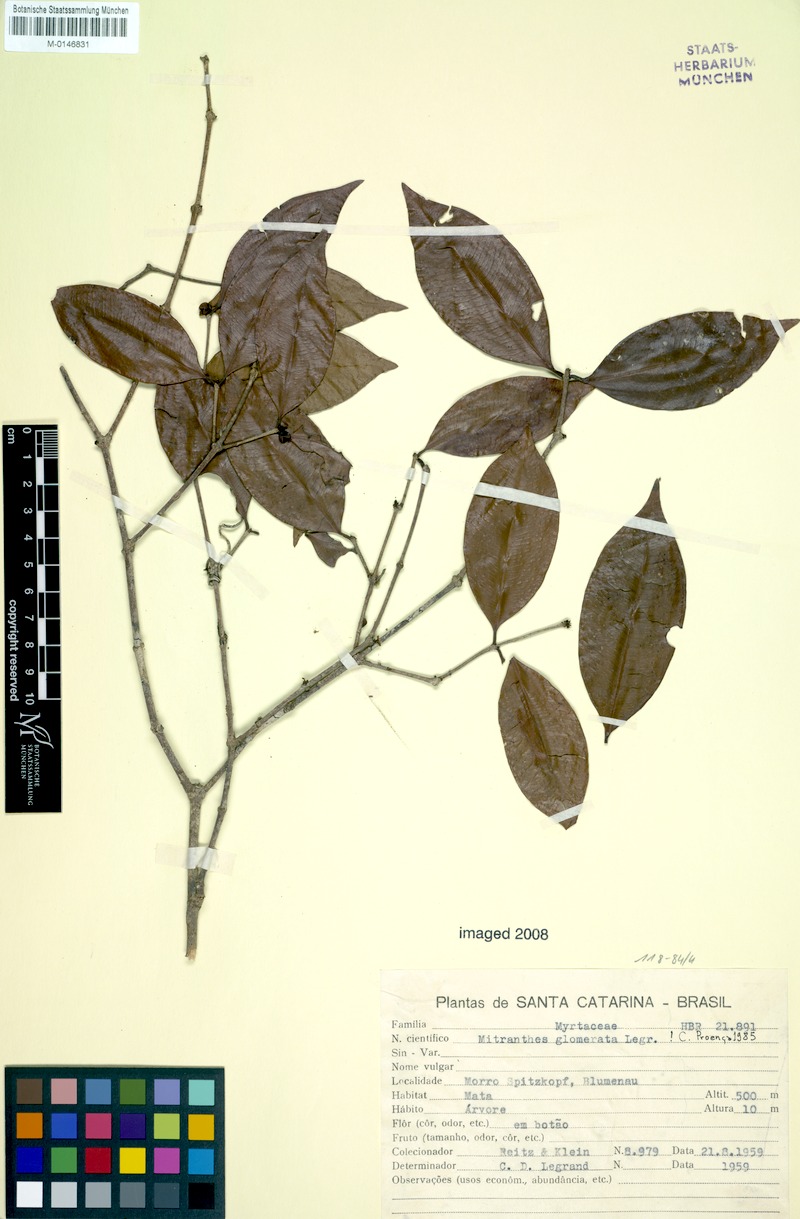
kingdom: Plantae
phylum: Tracheophyta
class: Magnoliopsida
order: Myrtales
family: Myrtaceae
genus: Neomitranthes
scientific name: Neomitranthes glomerata
